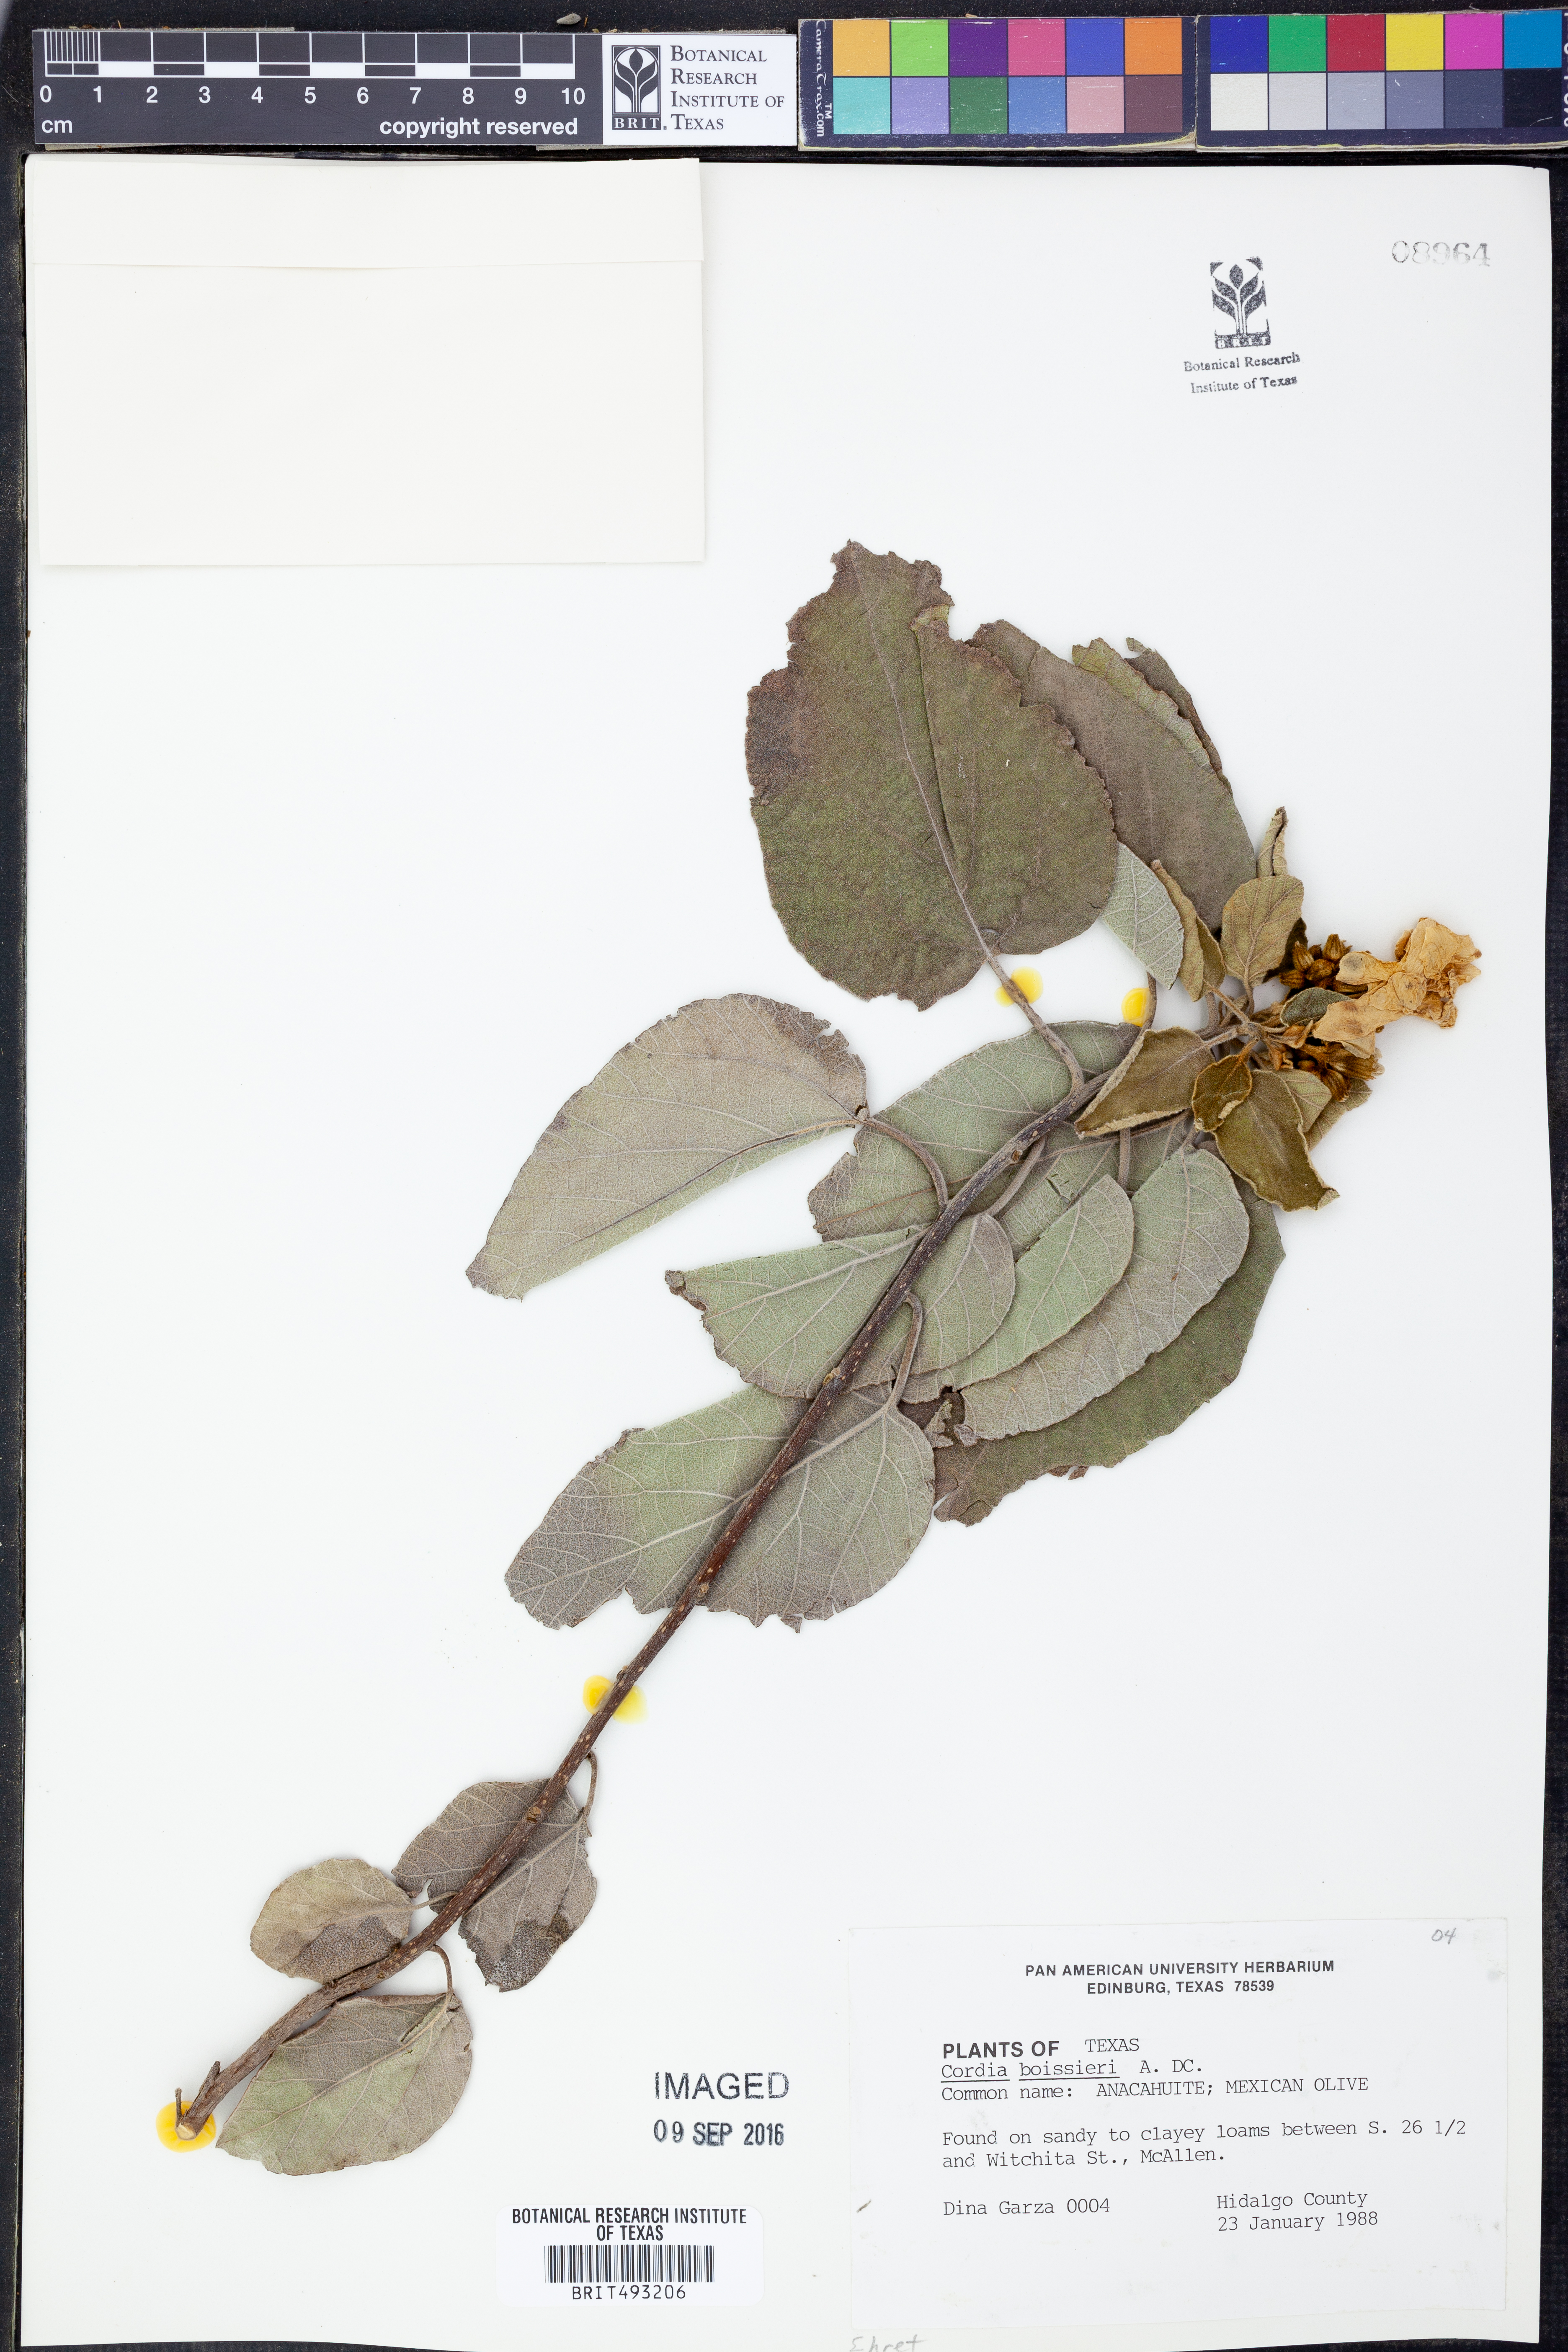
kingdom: Plantae
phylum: Tracheophyta
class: Magnoliopsida
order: Boraginales
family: Cordiaceae
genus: Cordia
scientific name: Cordia boissieri
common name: Mexican-olive
